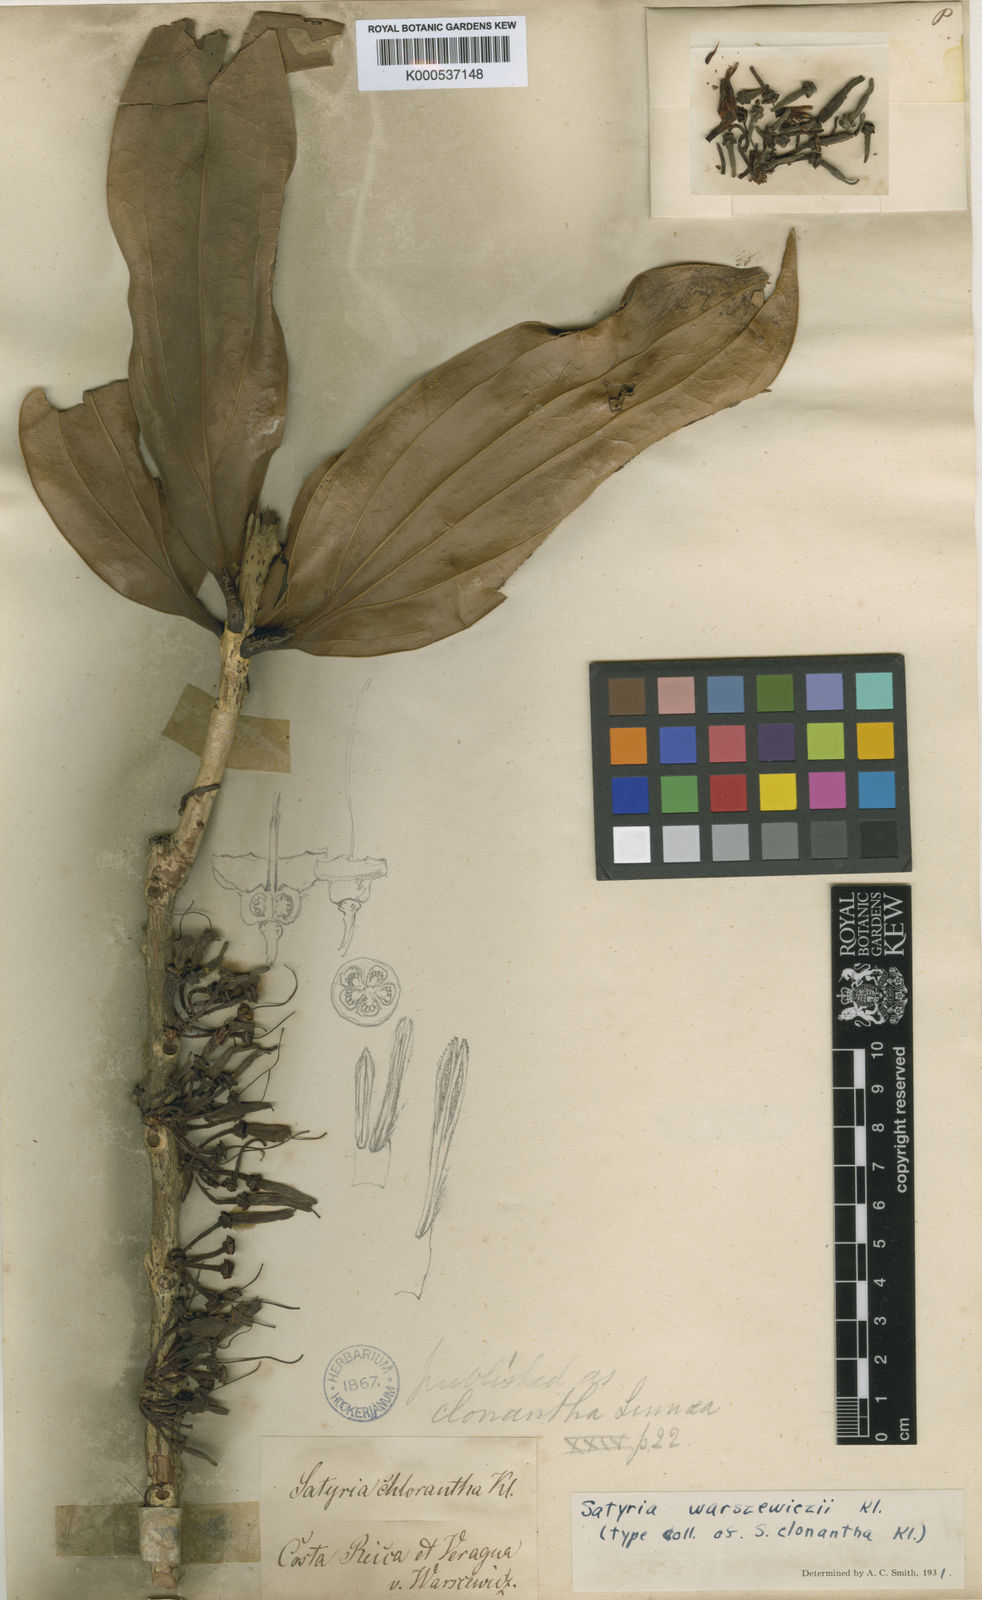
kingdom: Plantae
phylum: Tracheophyta
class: Magnoliopsida
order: Ericales
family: Ericaceae
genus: Satyria
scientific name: Satyria warszewiczii
